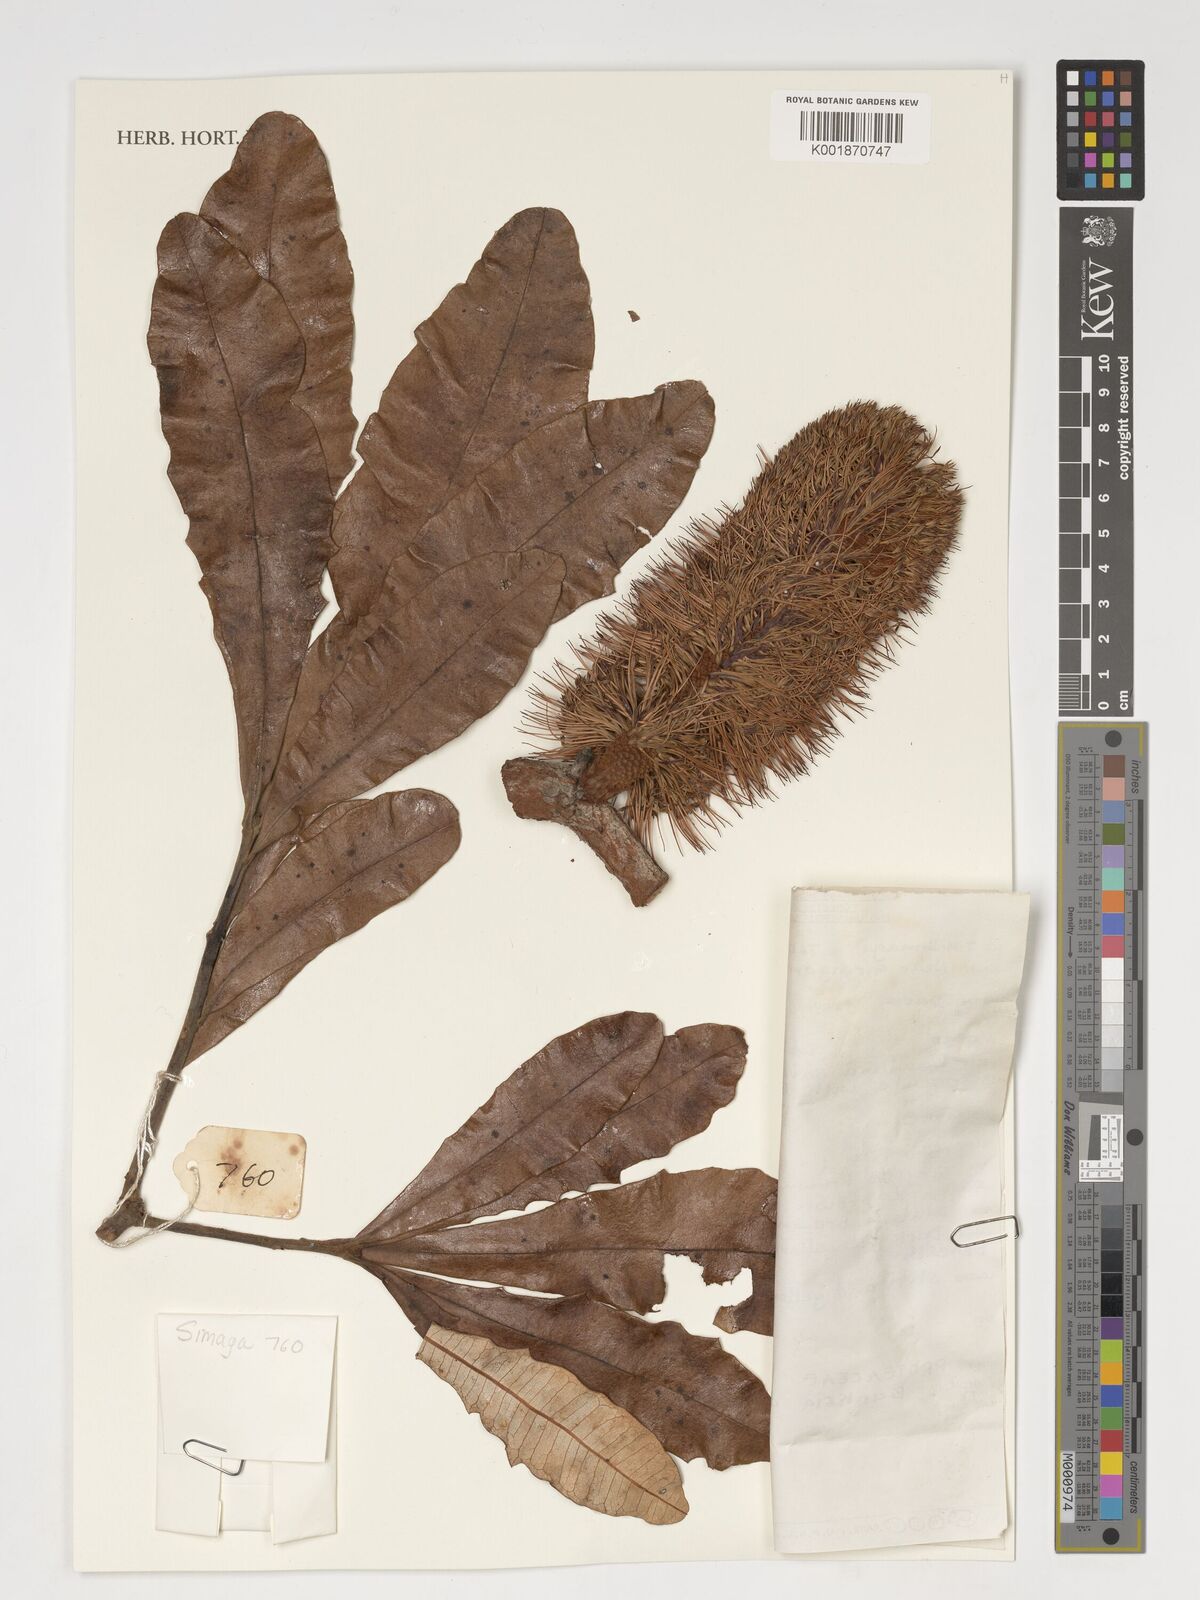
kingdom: Plantae
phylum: Tracheophyta
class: Magnoliopsida
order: Proteales
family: Proteaceae
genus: Banksia
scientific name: Banksia dentata
